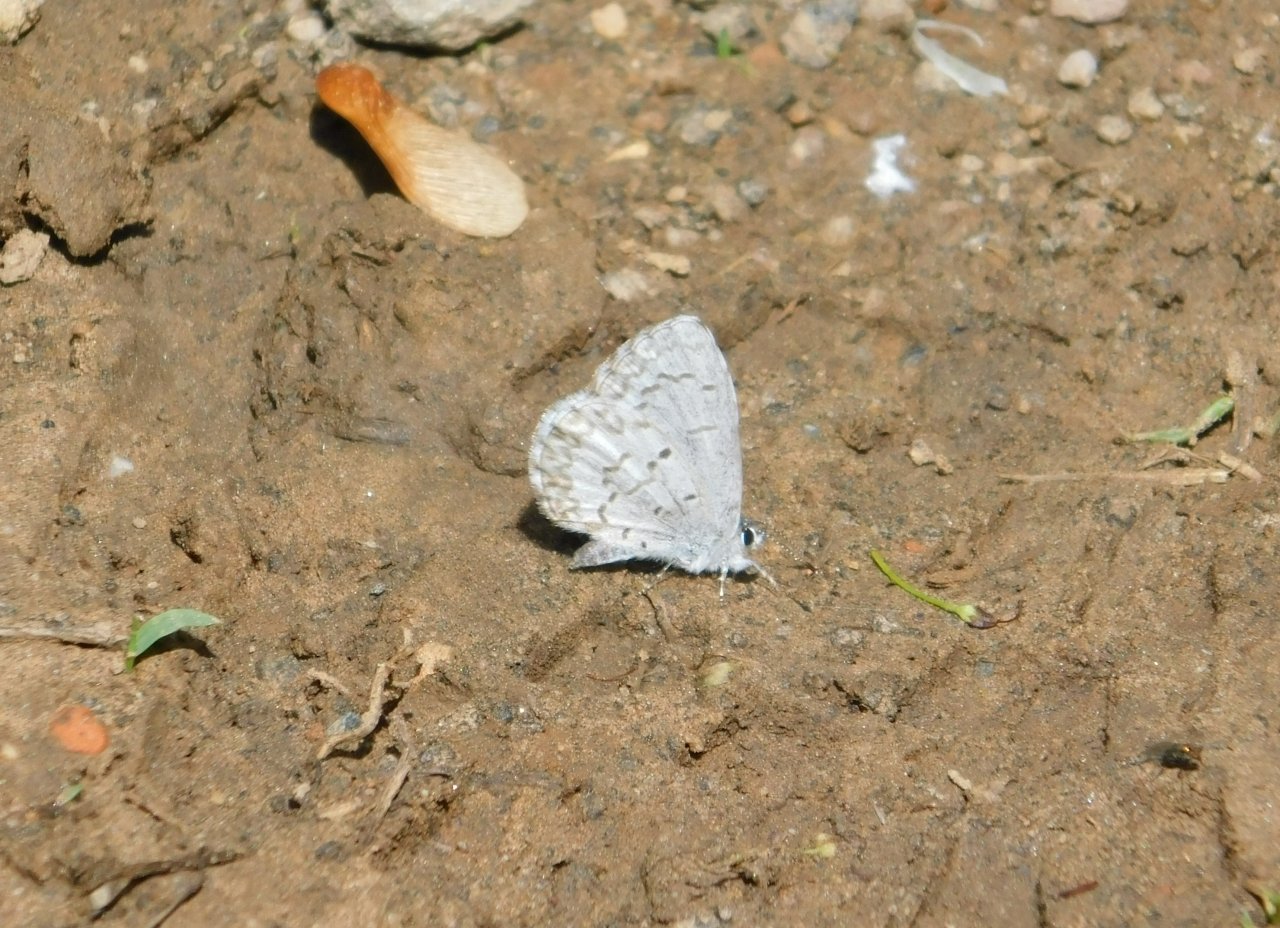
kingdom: Animalia
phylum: Arthropoda
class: Insecta
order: Lepidoptera
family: Lycaenidae
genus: Celastrina
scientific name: Celastrina lucia
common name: Northern Spring Azure
